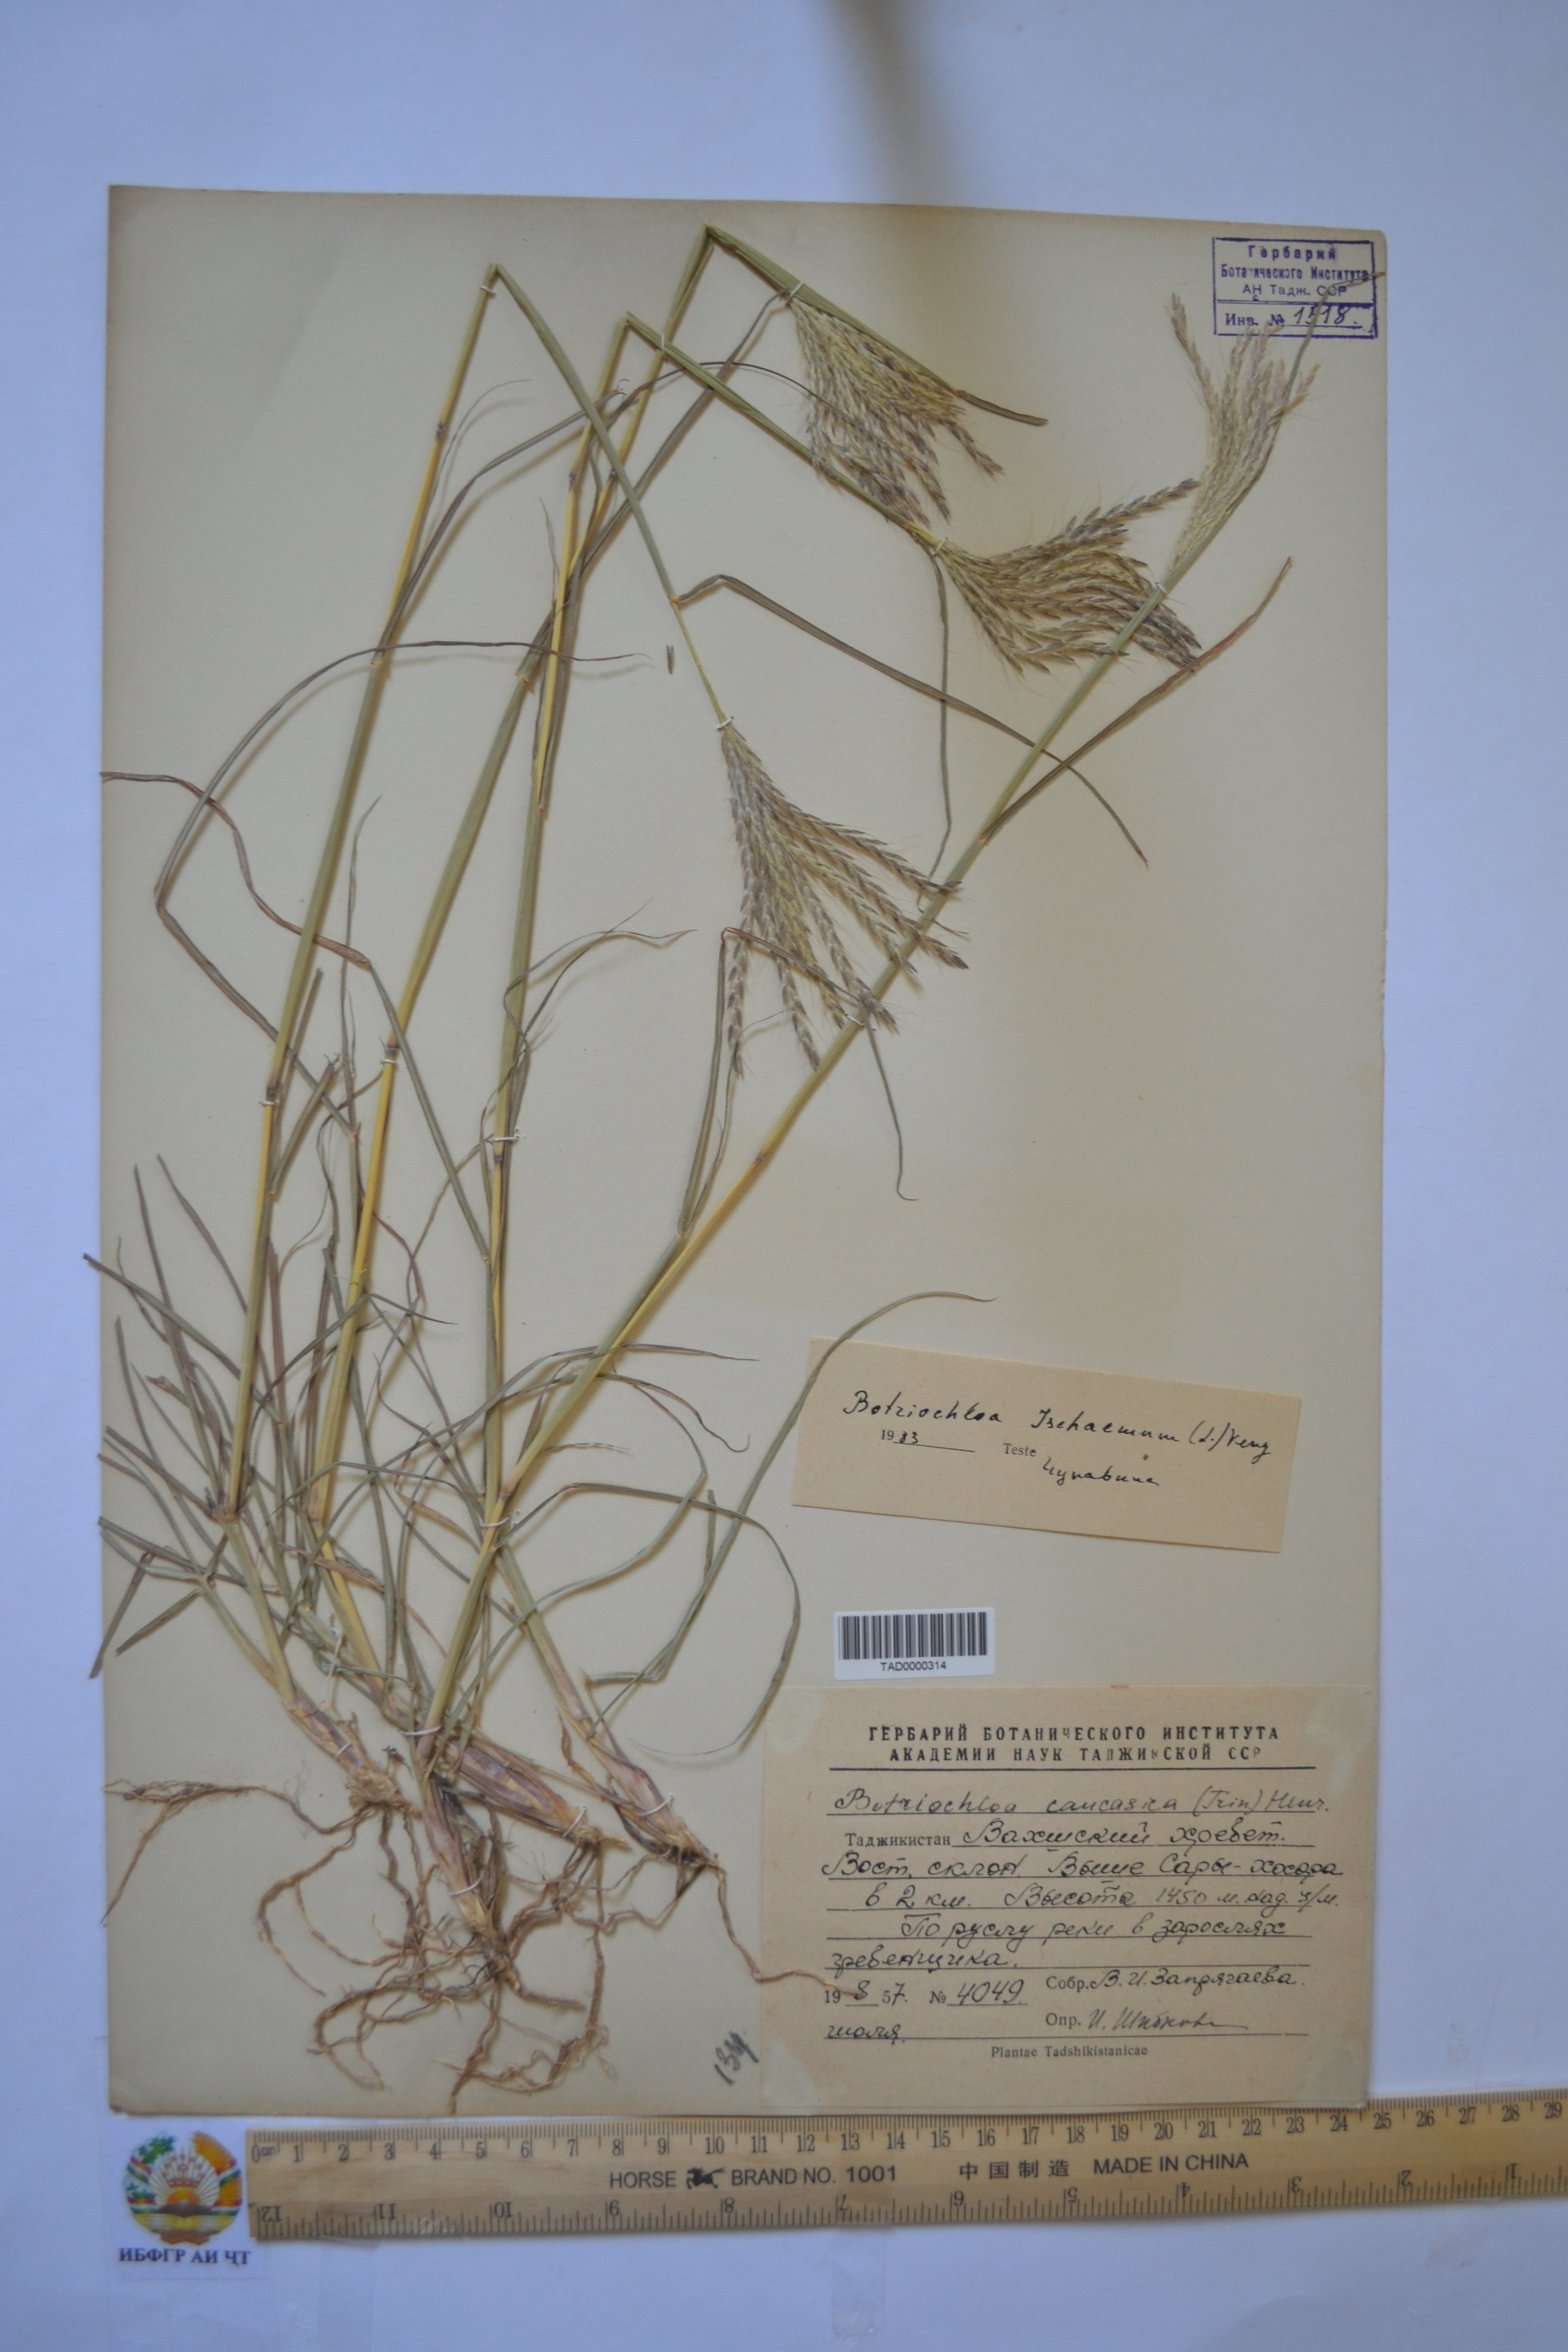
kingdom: Plantae
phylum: Tracheophyta
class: Liliopsida
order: Poales
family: Poaceae
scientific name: Poaceae
